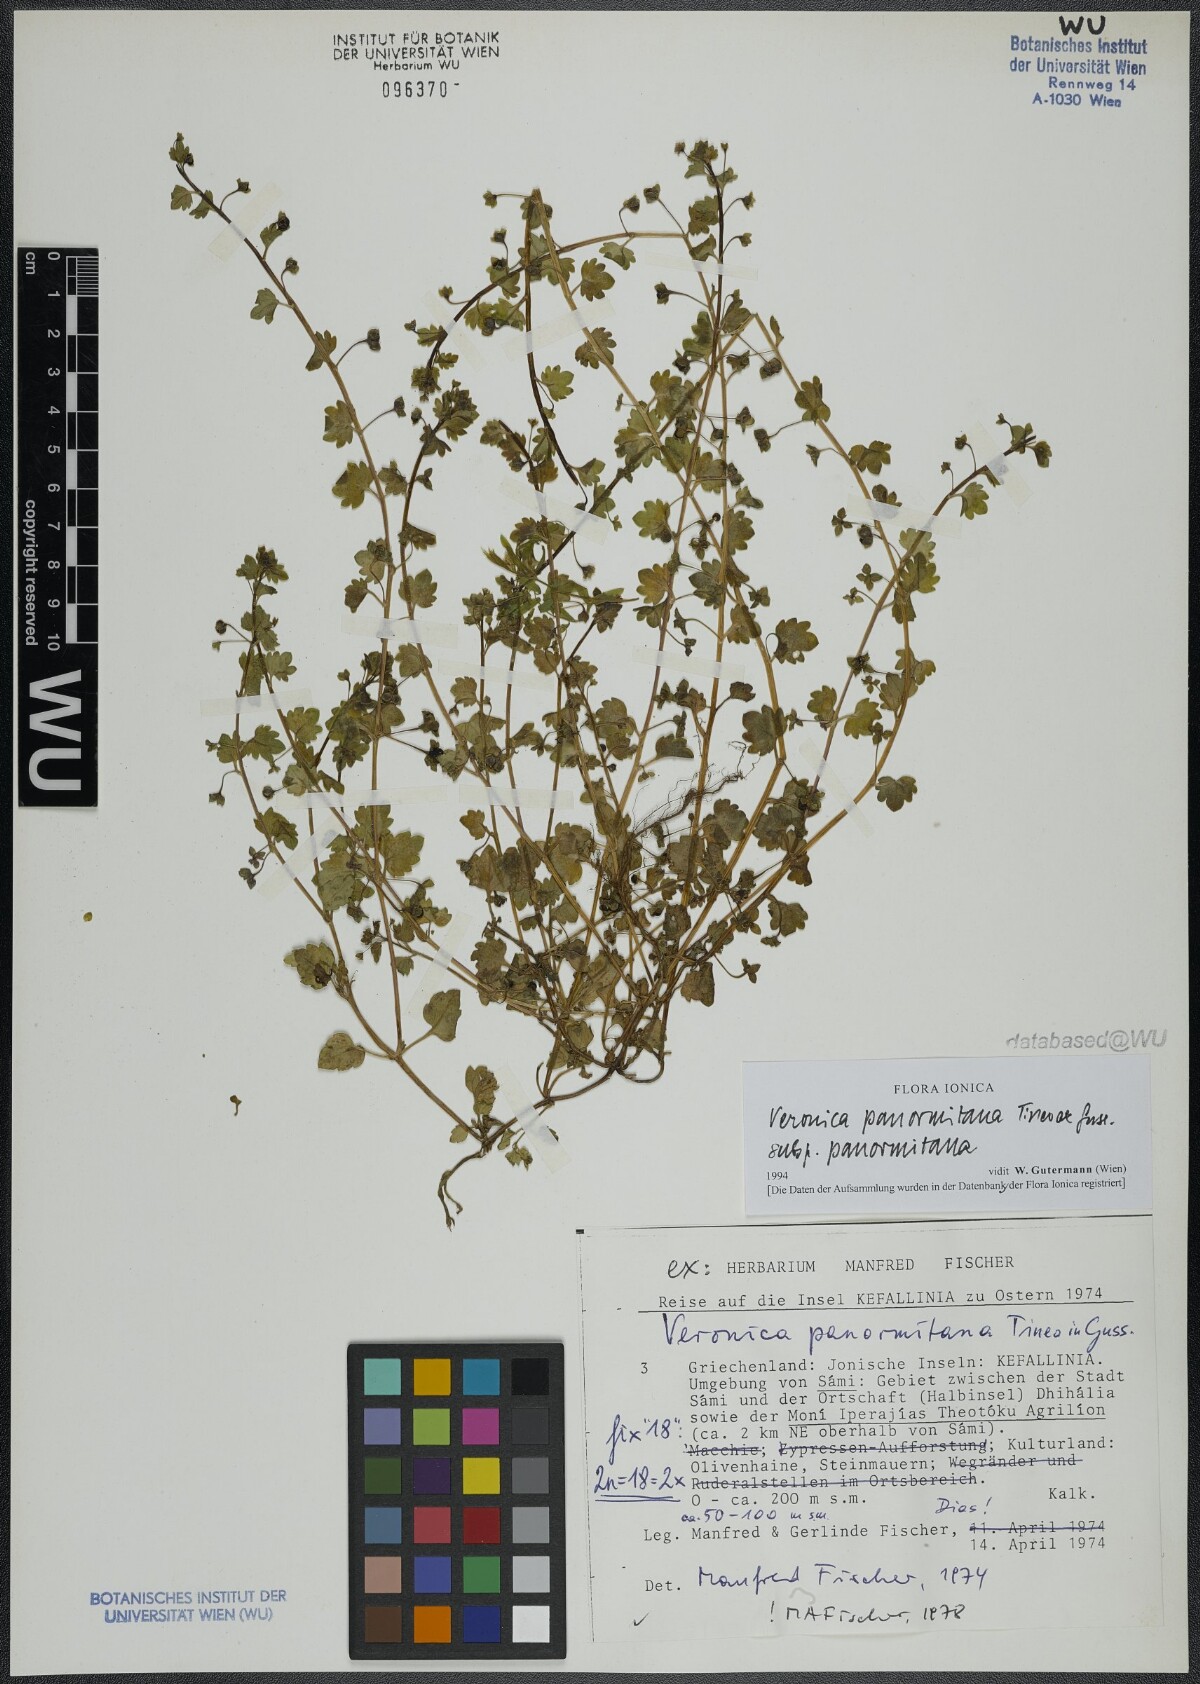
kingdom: Plantae
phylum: Tracheophyta
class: Magnoliopsida
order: Lamiales
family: Plantaginaceae
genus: Veronica
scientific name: Veronica panormitana
